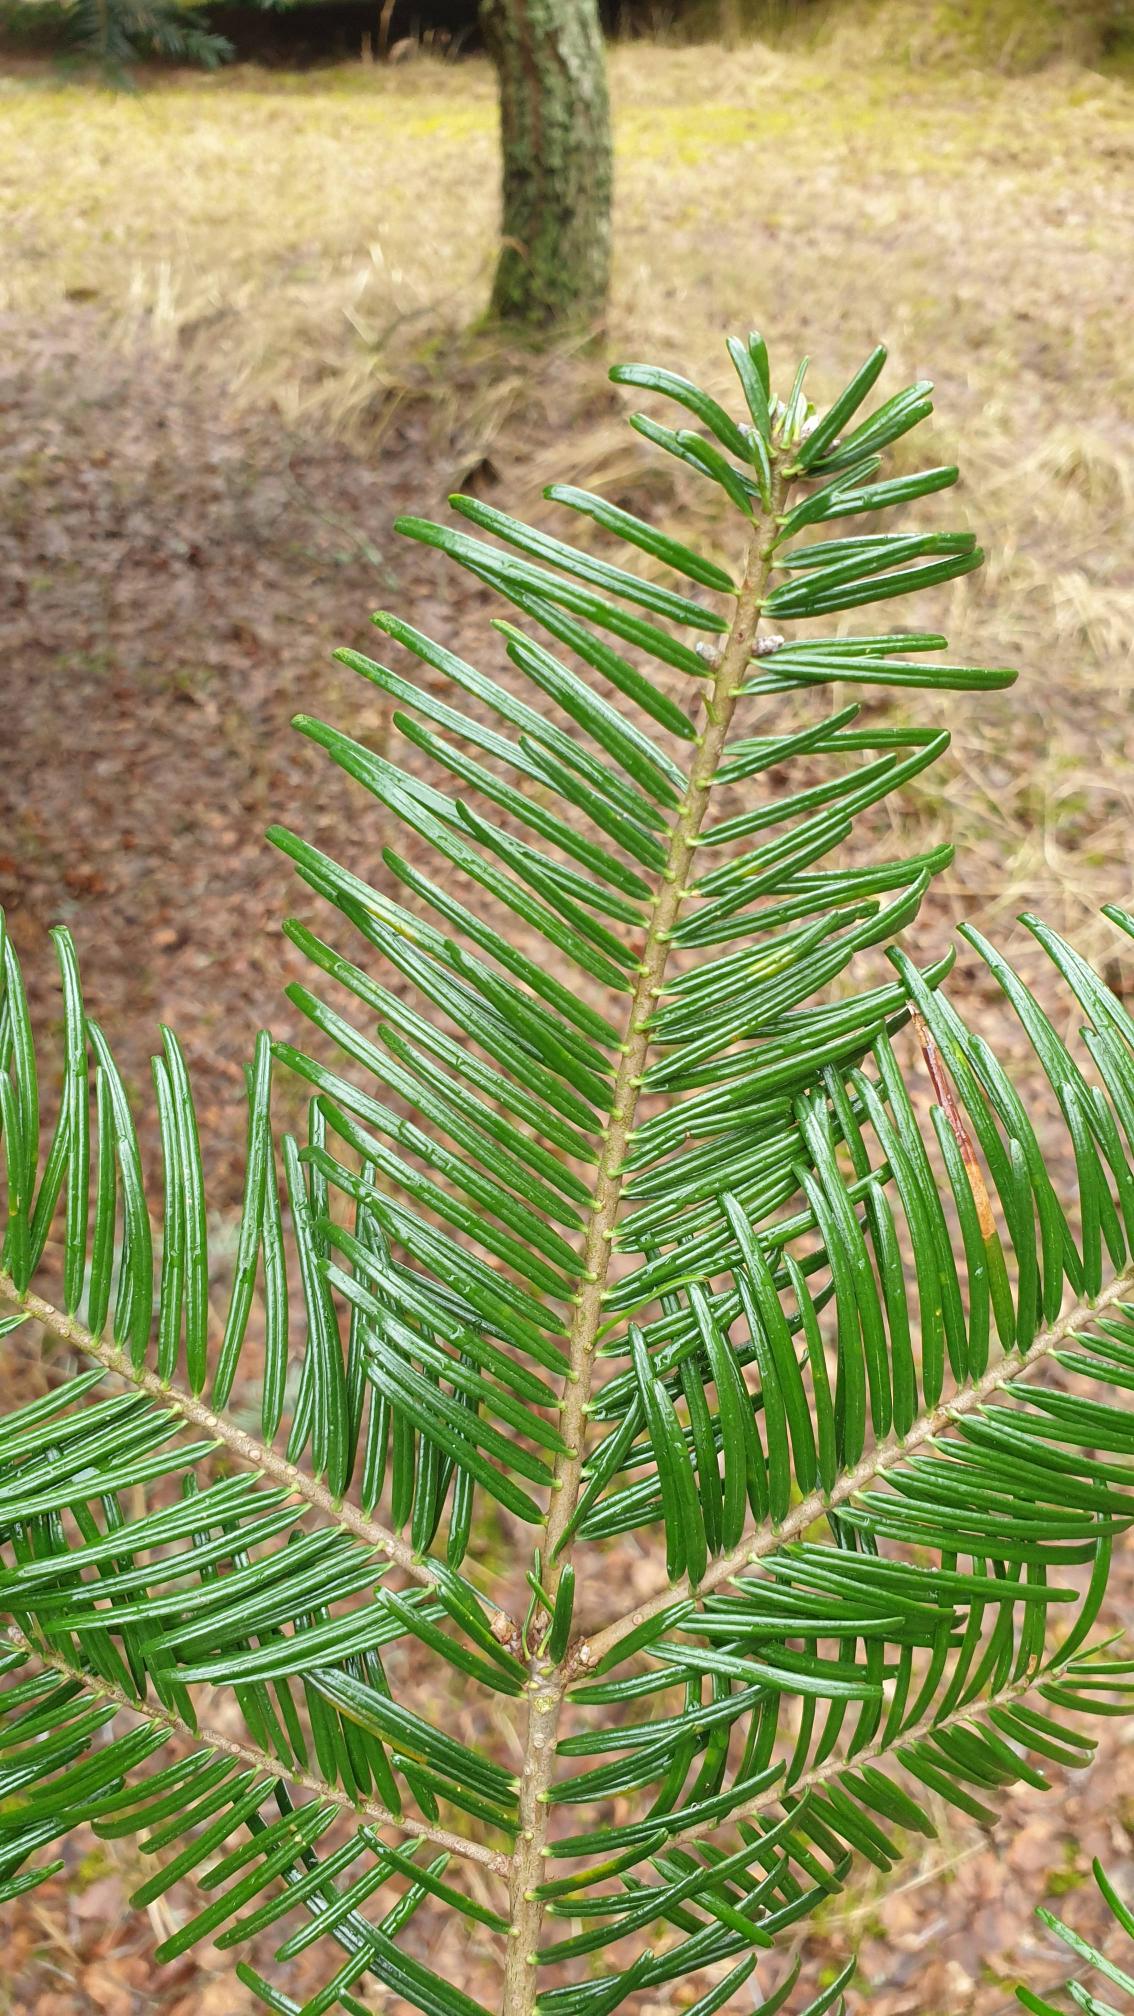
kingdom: Plantae
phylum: Tracheophyta
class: Pinopsida
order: Pinales
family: Pinaceae
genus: Abies
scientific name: Abies grandis
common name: Kæmpegran
